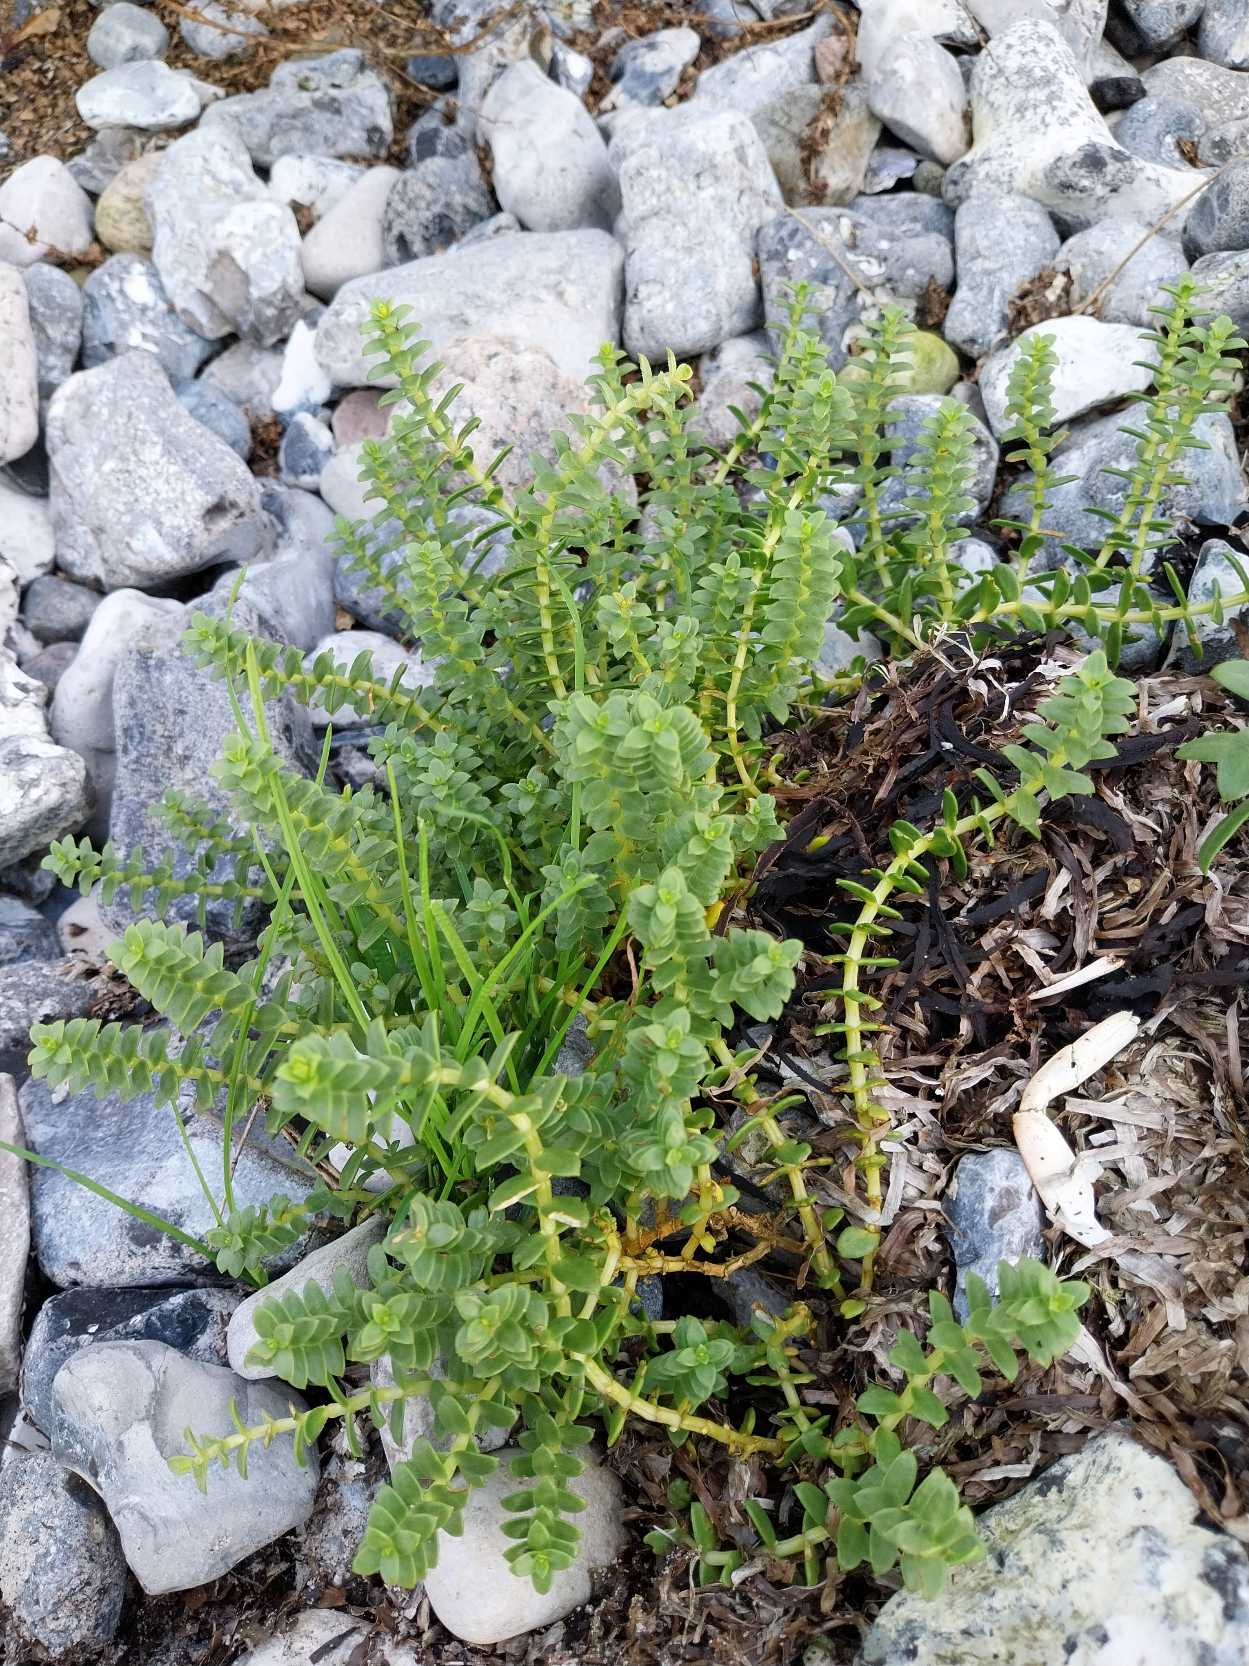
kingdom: Plantae
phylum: Tracheophyta
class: Magnoliopsida
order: Caryophyllales
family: Caryophyllaceae
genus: Honckenya
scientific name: Honckenya peploides
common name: Strandarve
